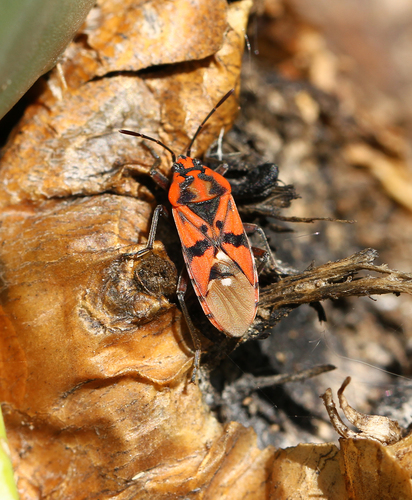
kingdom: Animalia
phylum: Arthropoda
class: Insecta
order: Hemiptera
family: Lygaeidae
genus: Spilostethus
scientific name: Spilostethus pandurus
